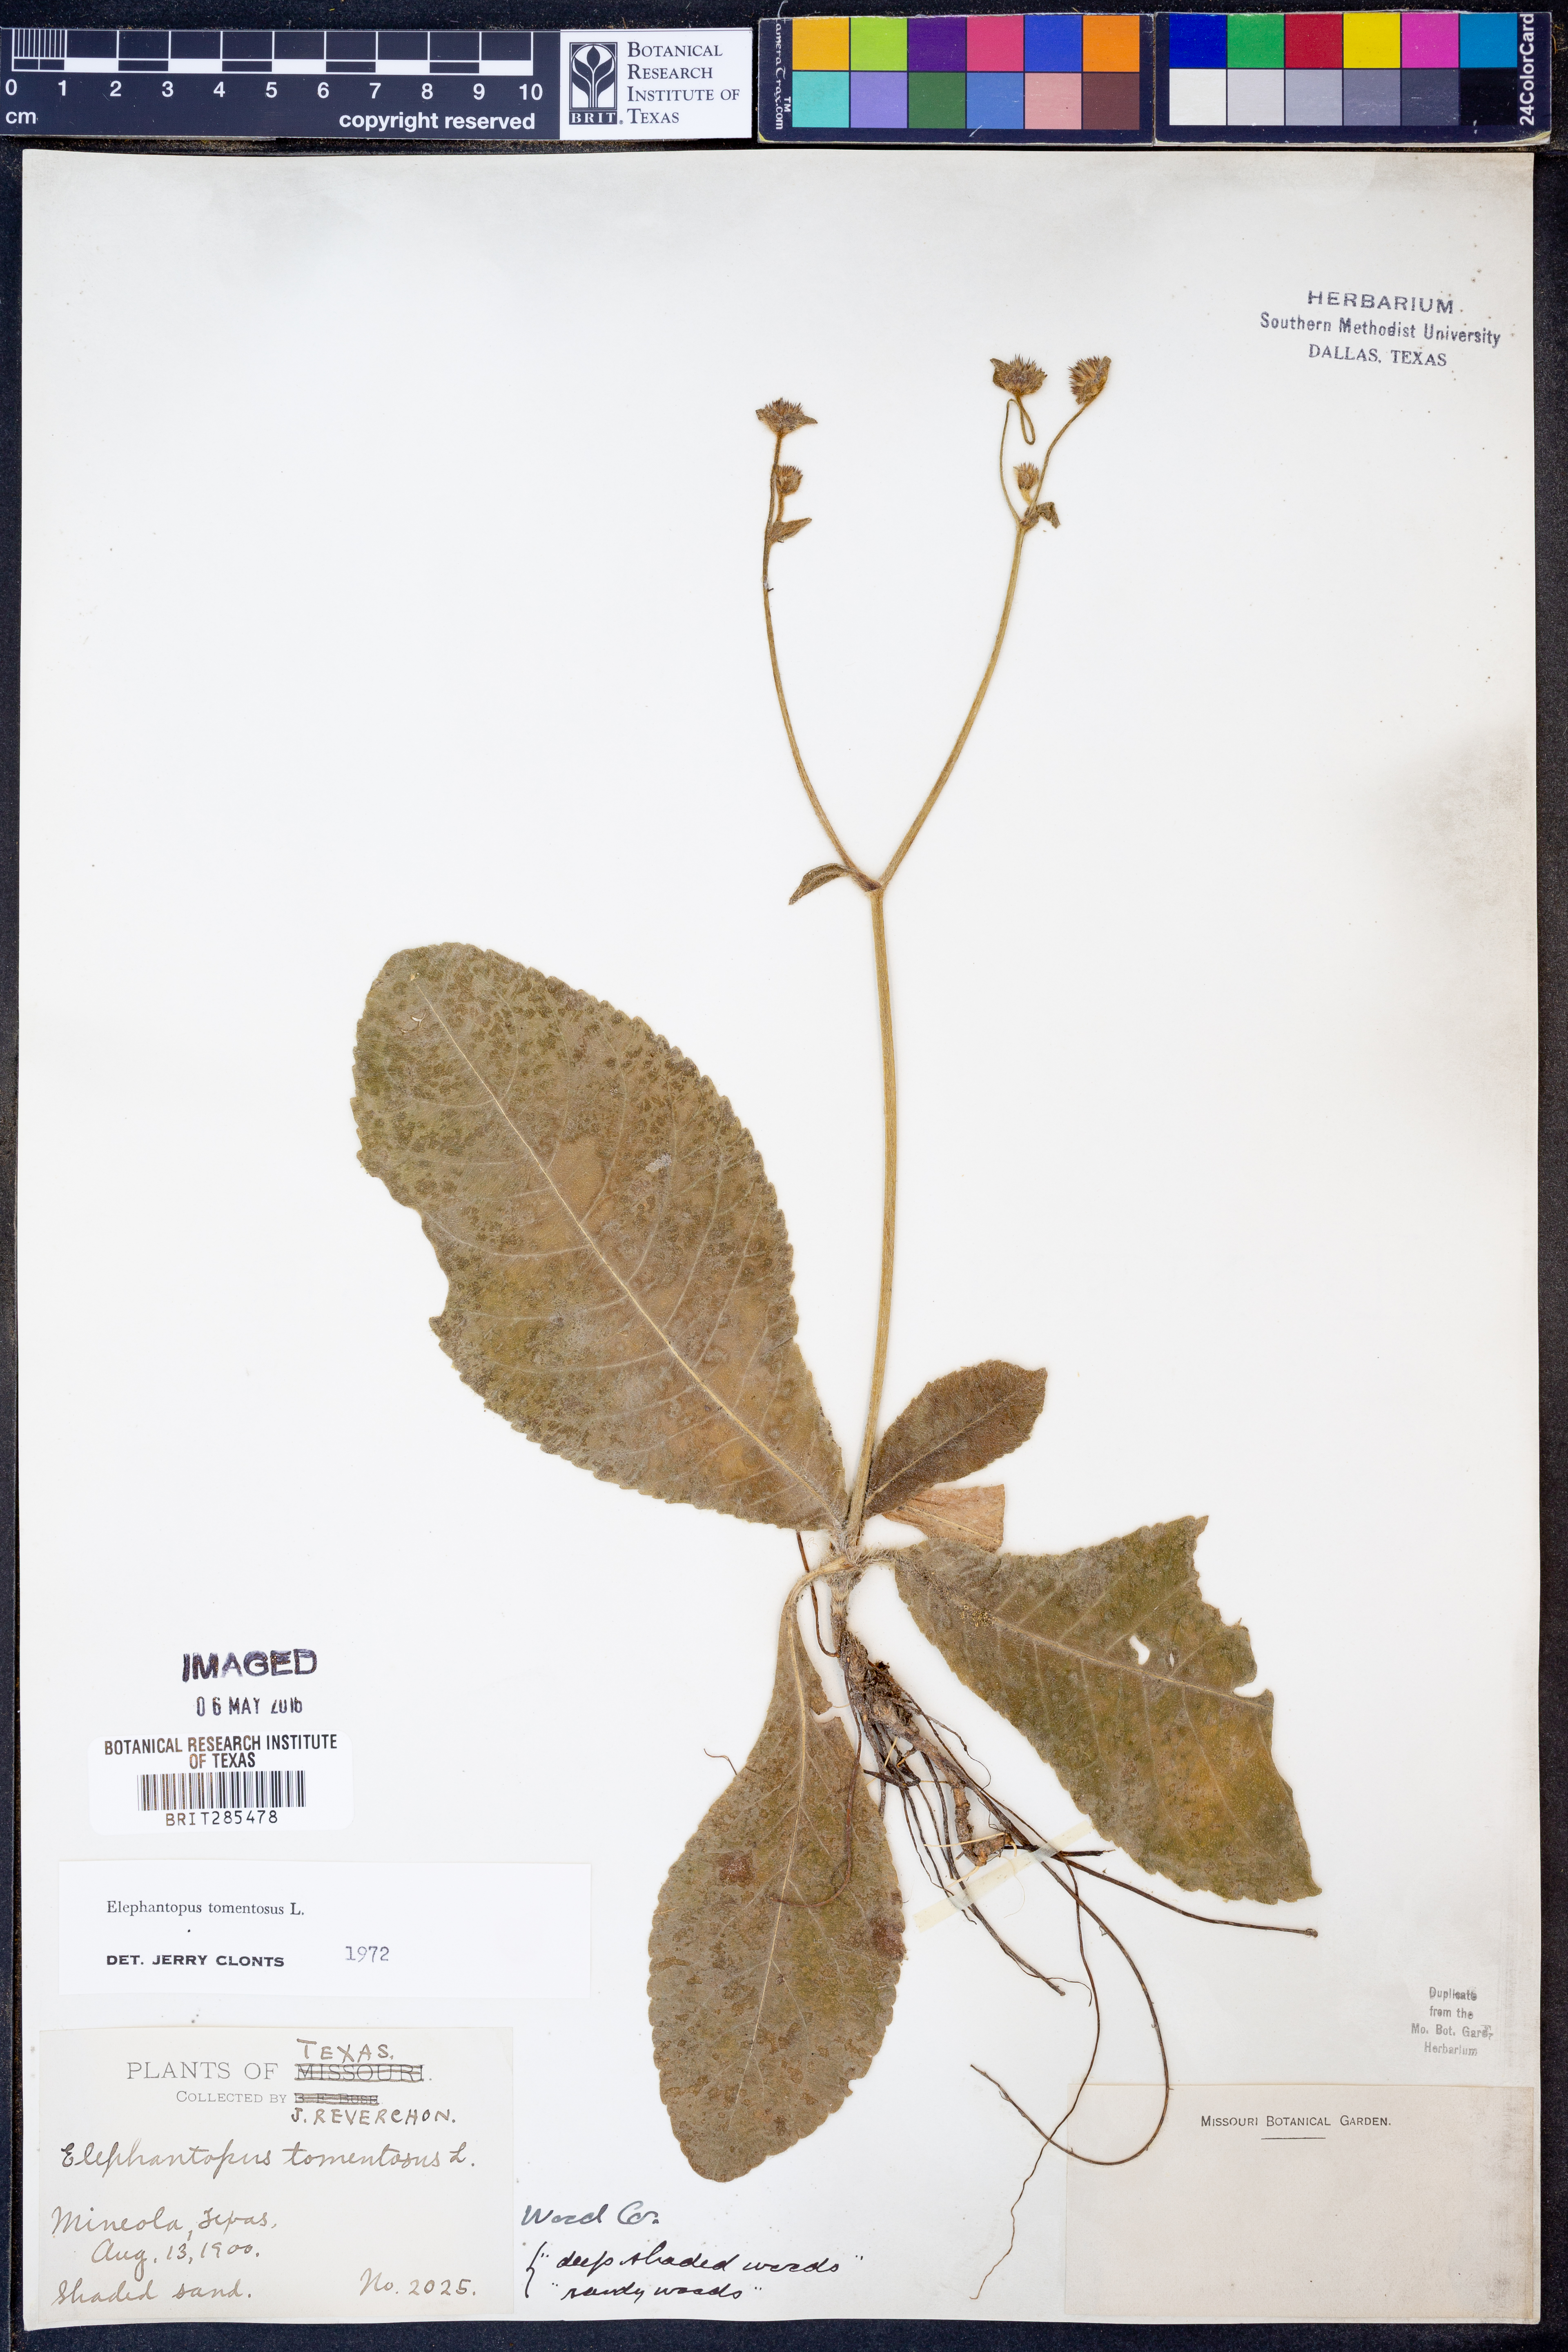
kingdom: Plantae
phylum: Tracheophyta
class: Magnoliopsida
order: Asterales
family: Asteraceae
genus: Elephantopus
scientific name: Elephantopus tomentosus
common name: Tobacco-weed
